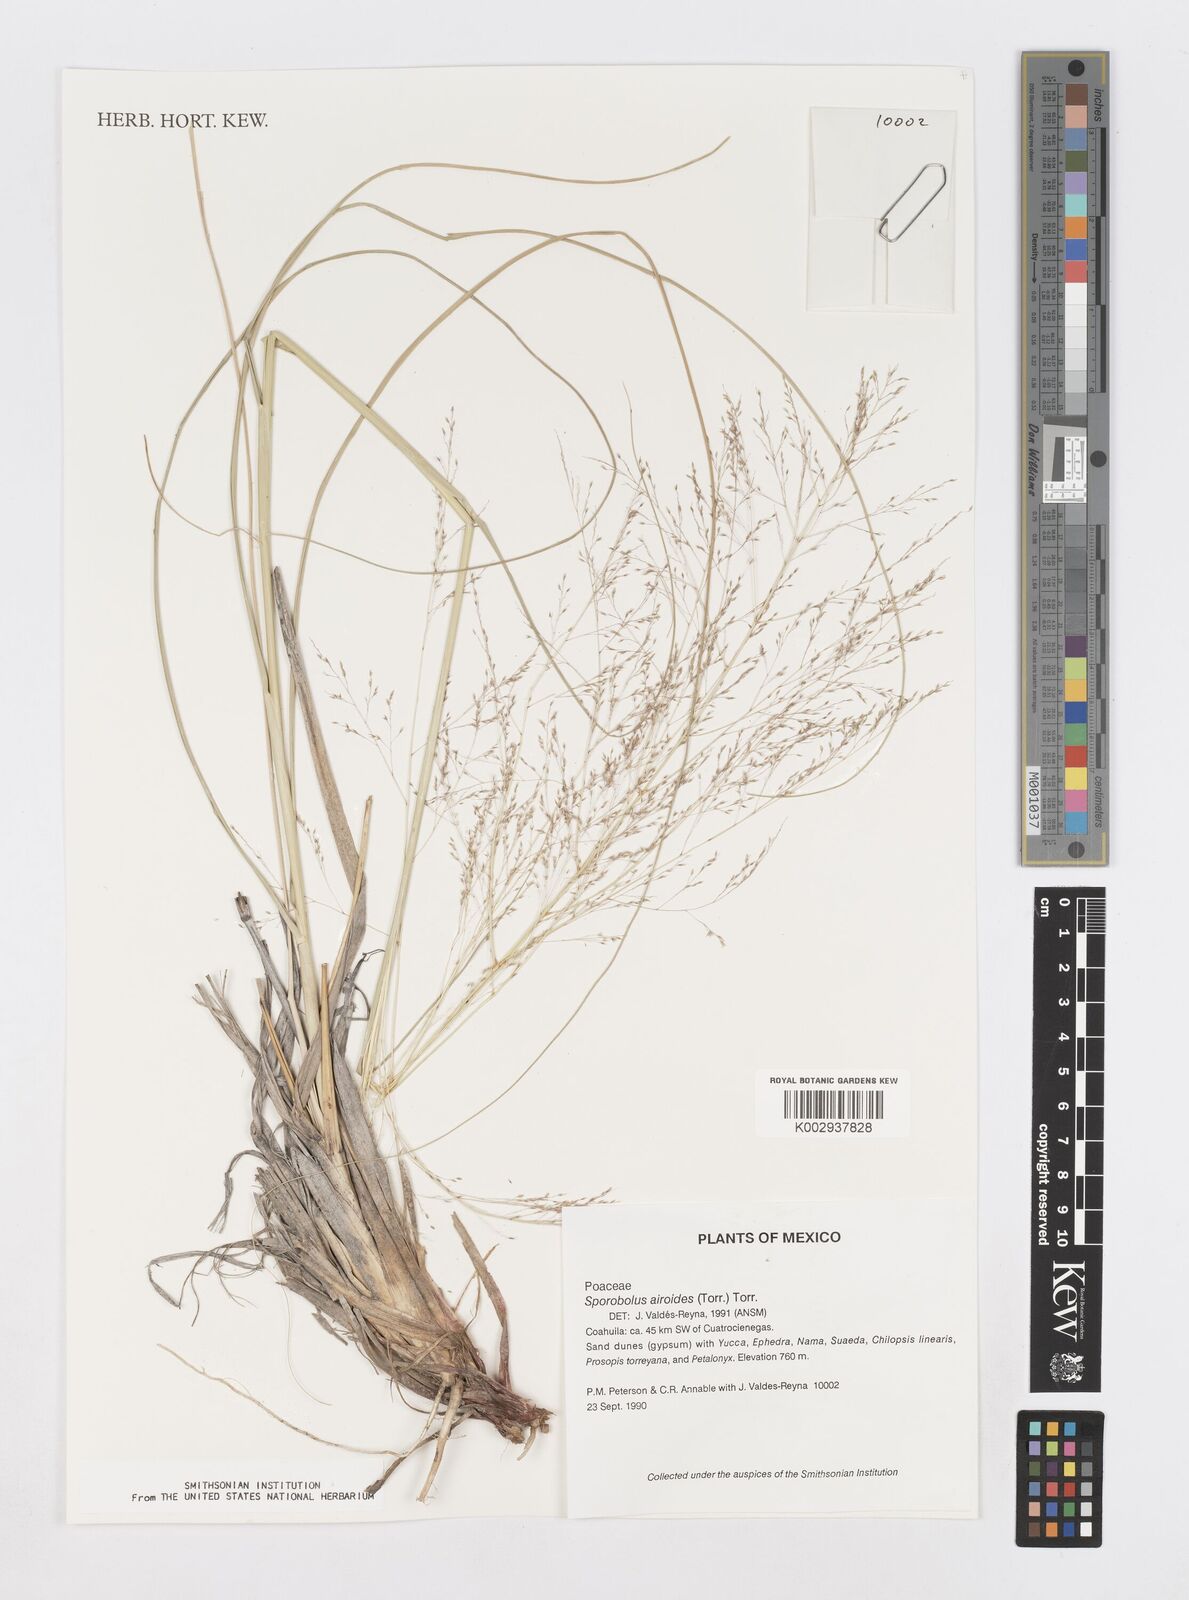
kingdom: Plantae
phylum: Tracheophyta
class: Liliopsida
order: Poales
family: Poaceae
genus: Sporobolus
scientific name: Sporobolus airoides
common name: Alkali sacaton
